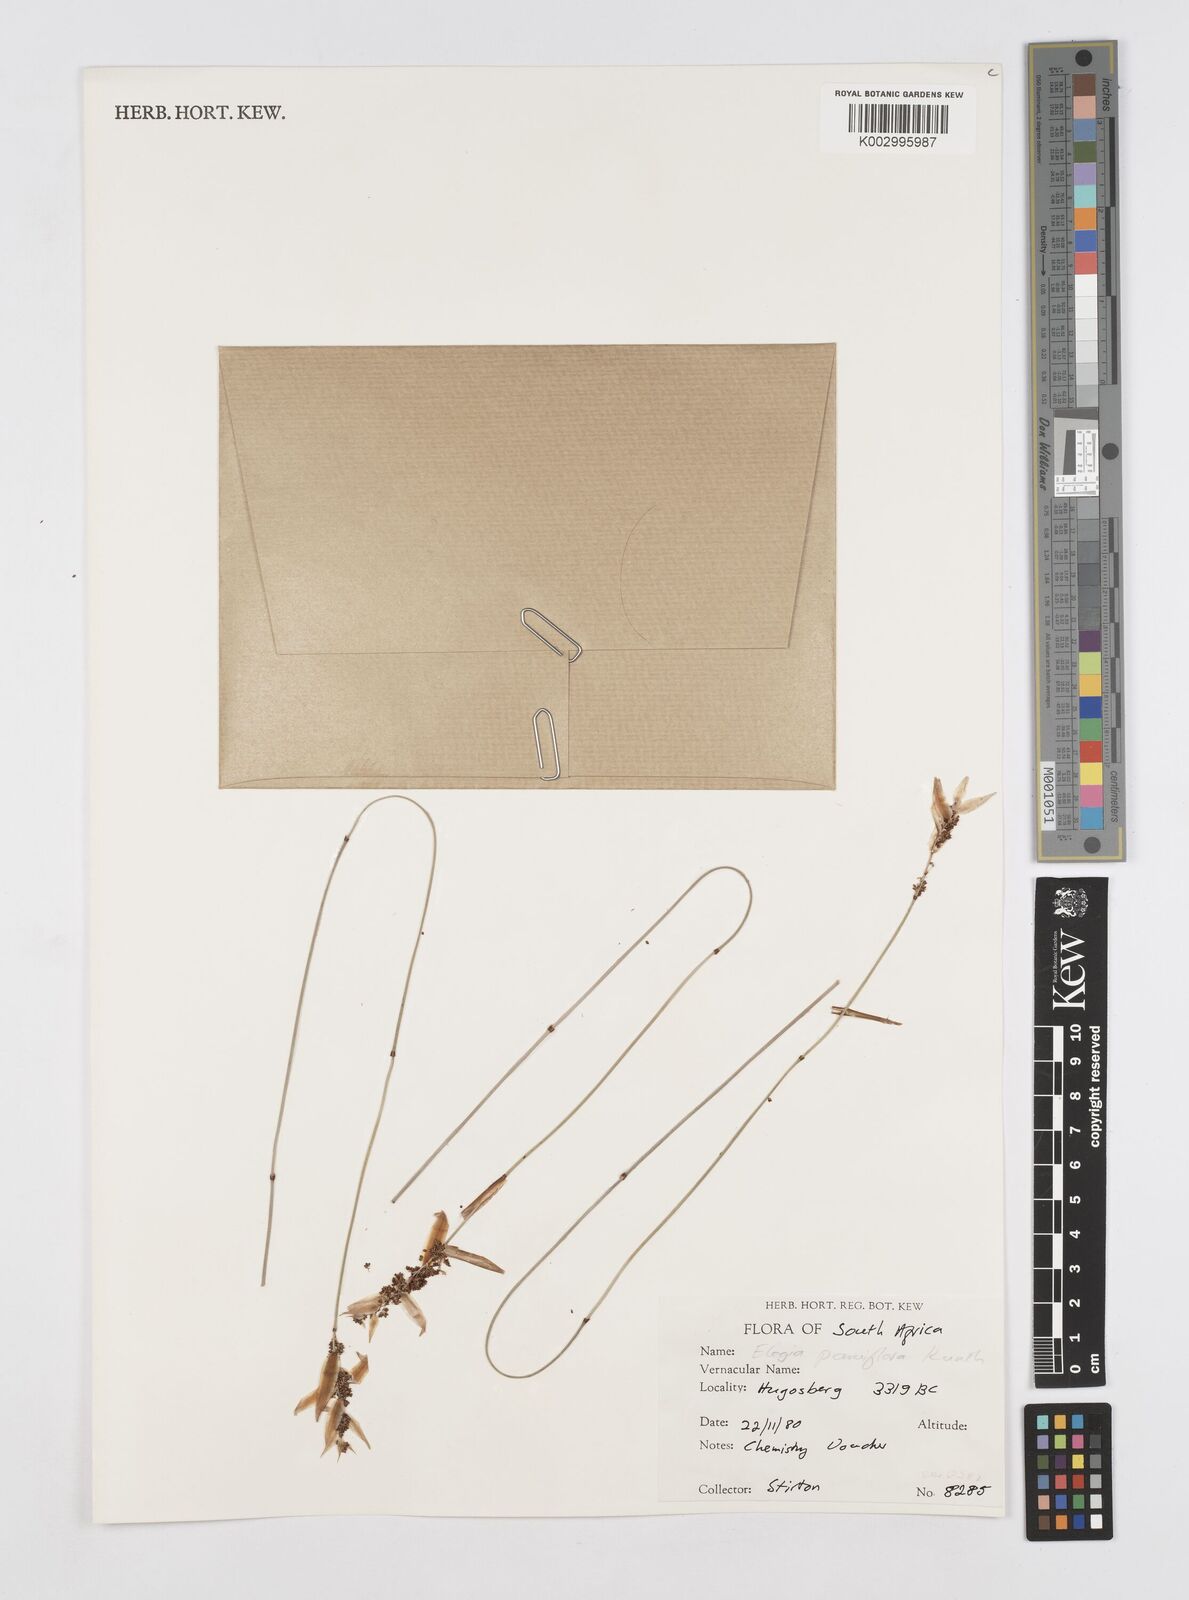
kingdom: Plantae
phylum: Tracheophyta
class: Liliopsida
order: Poales
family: Restionaceae
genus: Cannomois
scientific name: Cannomois parviflora
